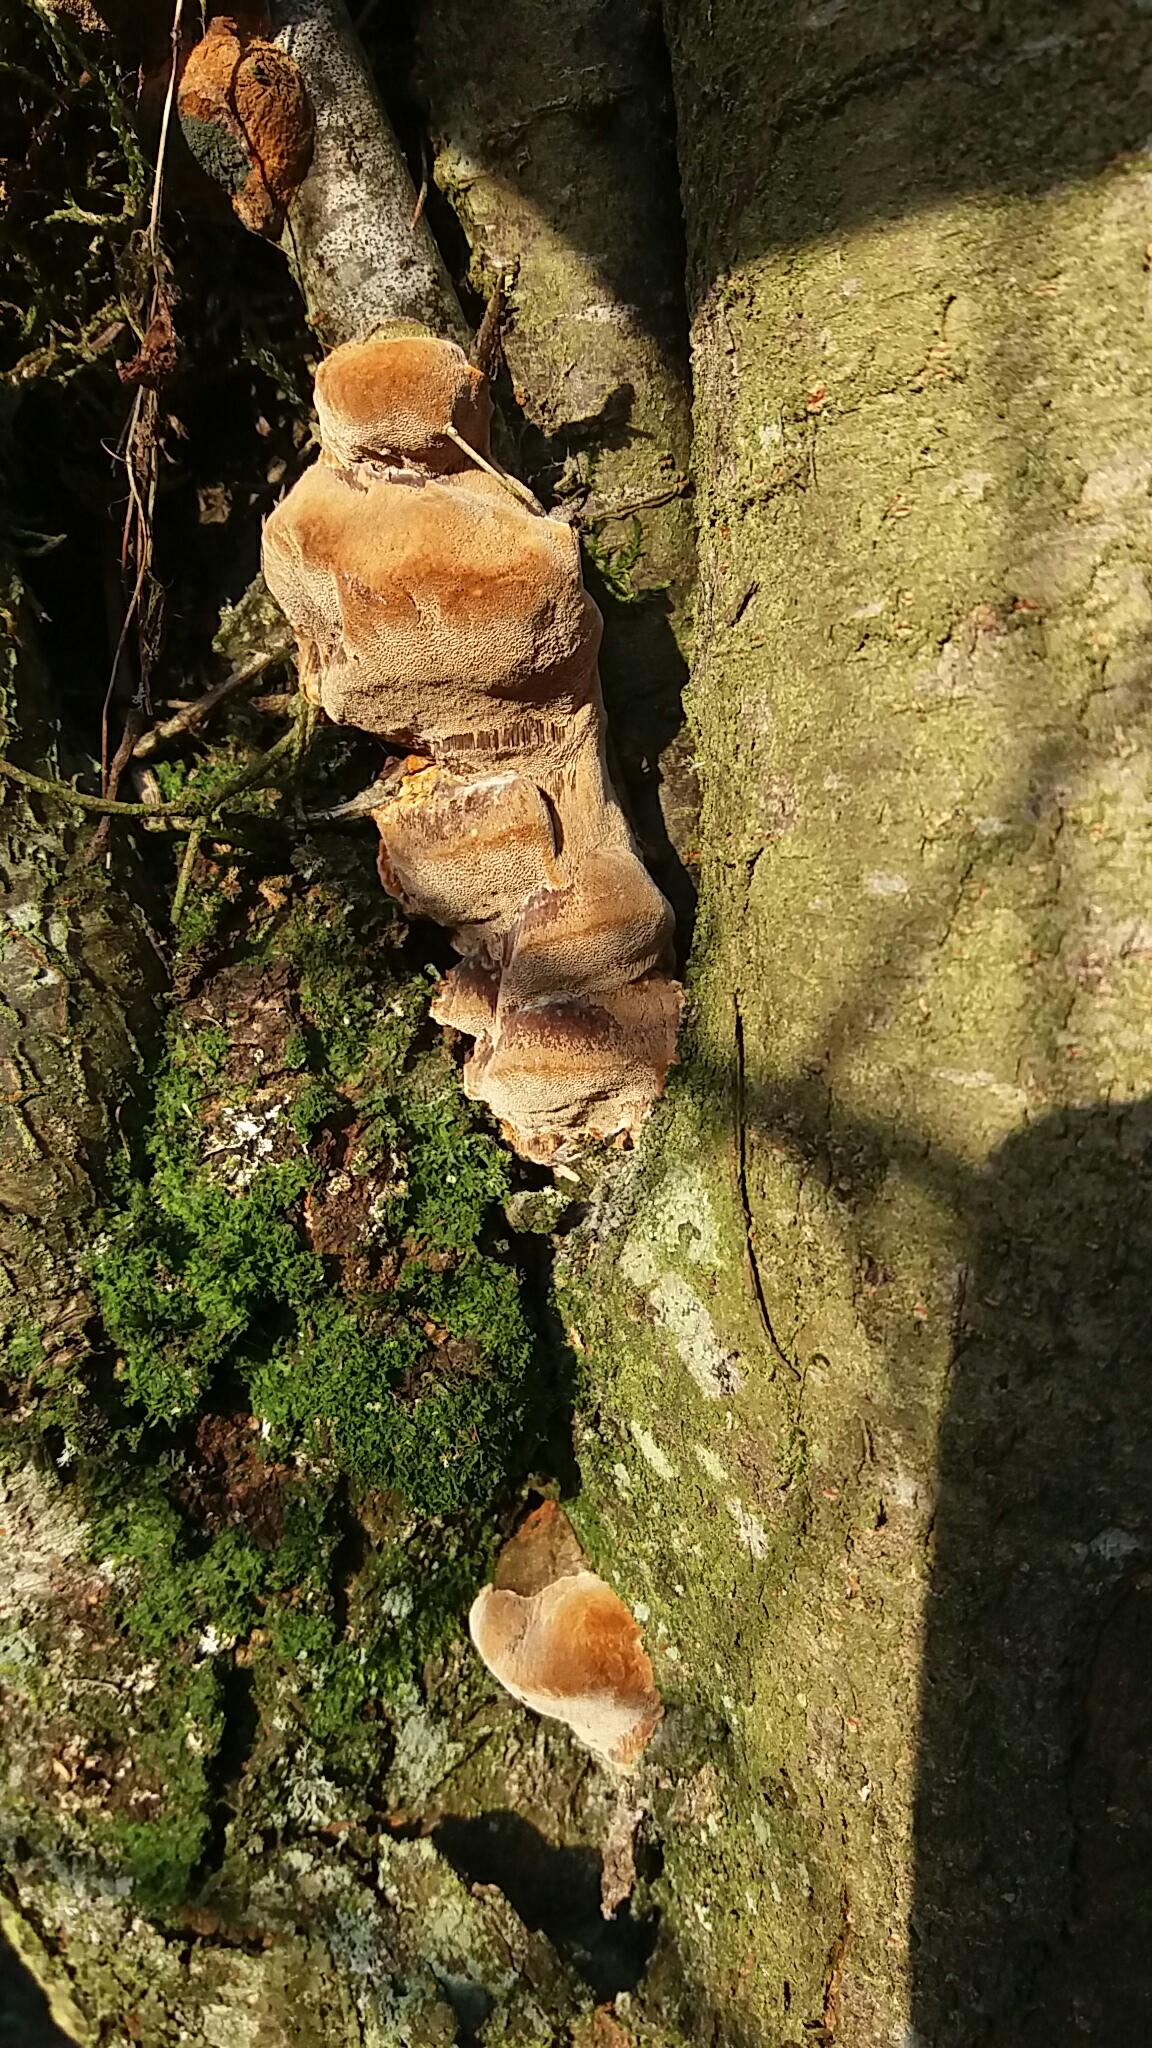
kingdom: Fungi
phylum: Basidiomycota
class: Agaricomycetes
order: Hymenochaetales
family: Hymenochaetaceae
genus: Phellinus
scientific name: Phellinus pomaceus
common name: blomme-ildporesvamp
